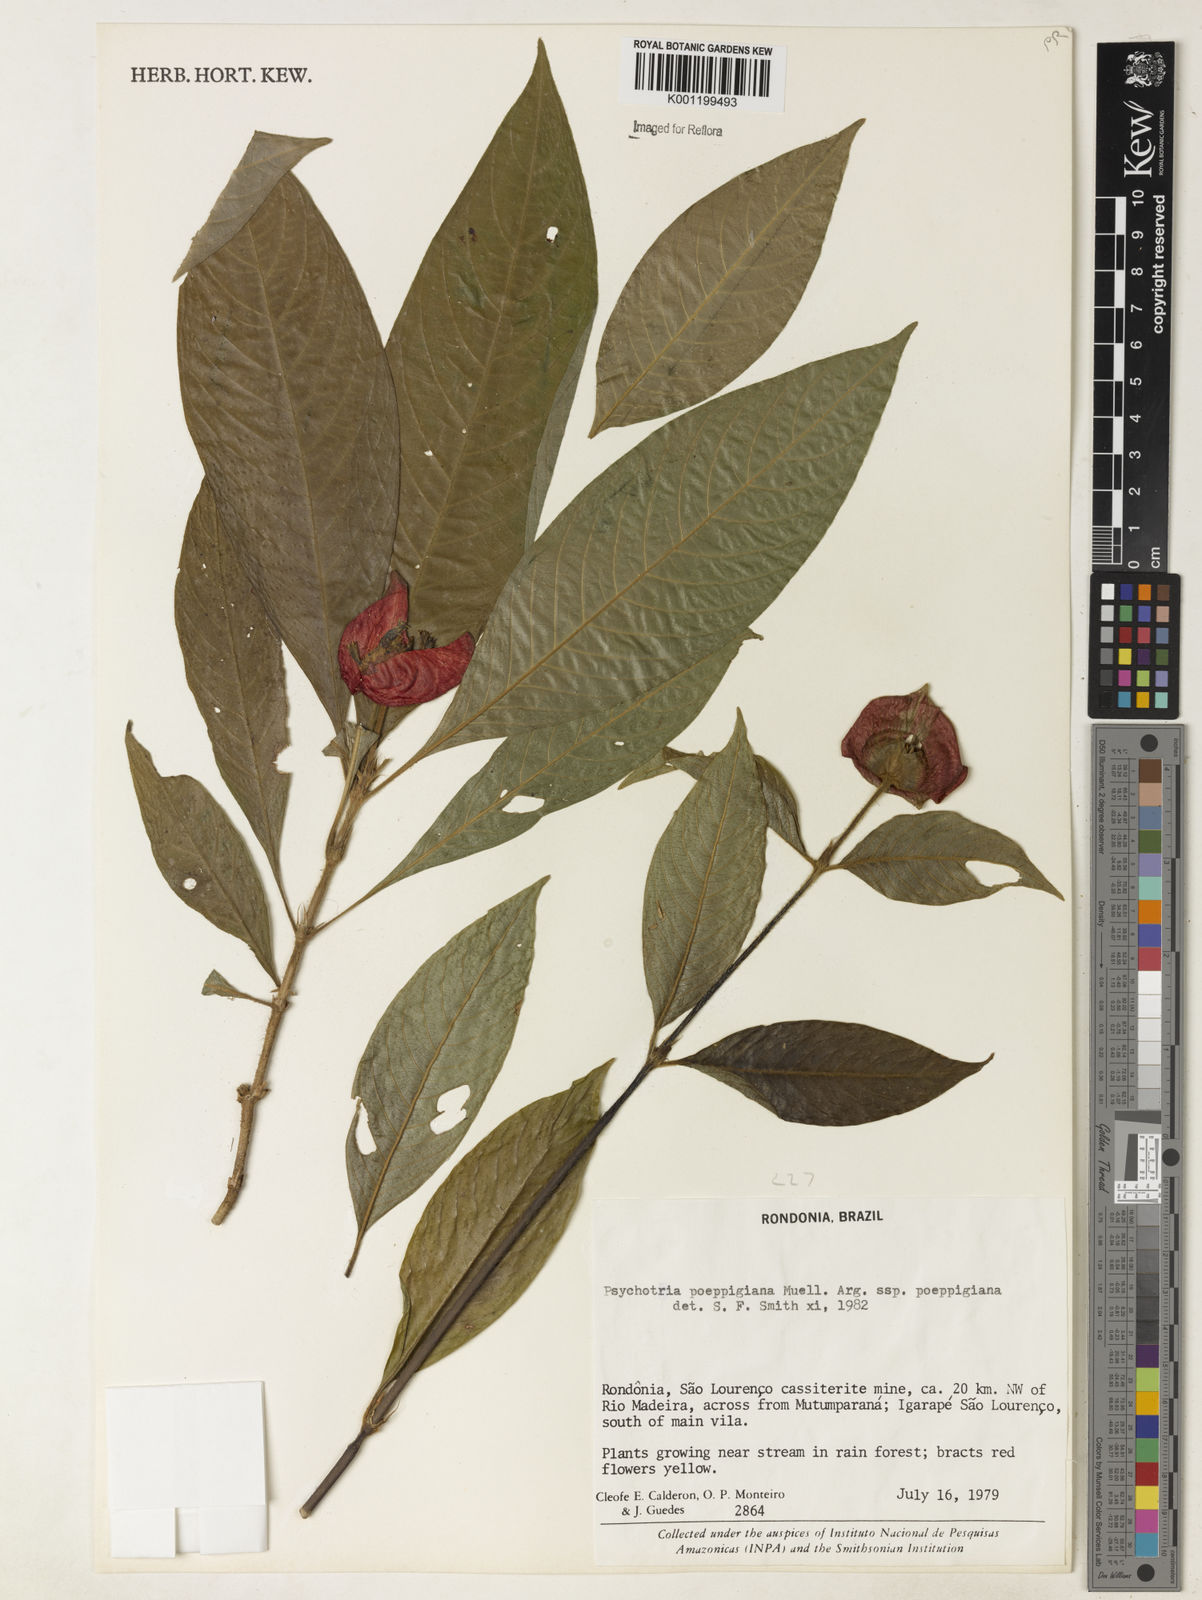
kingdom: Plantae
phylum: Tracheophyta
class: Magnoliopsida
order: Gentianales
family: Rubiaceae
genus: Psychotria
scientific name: Psychotria
